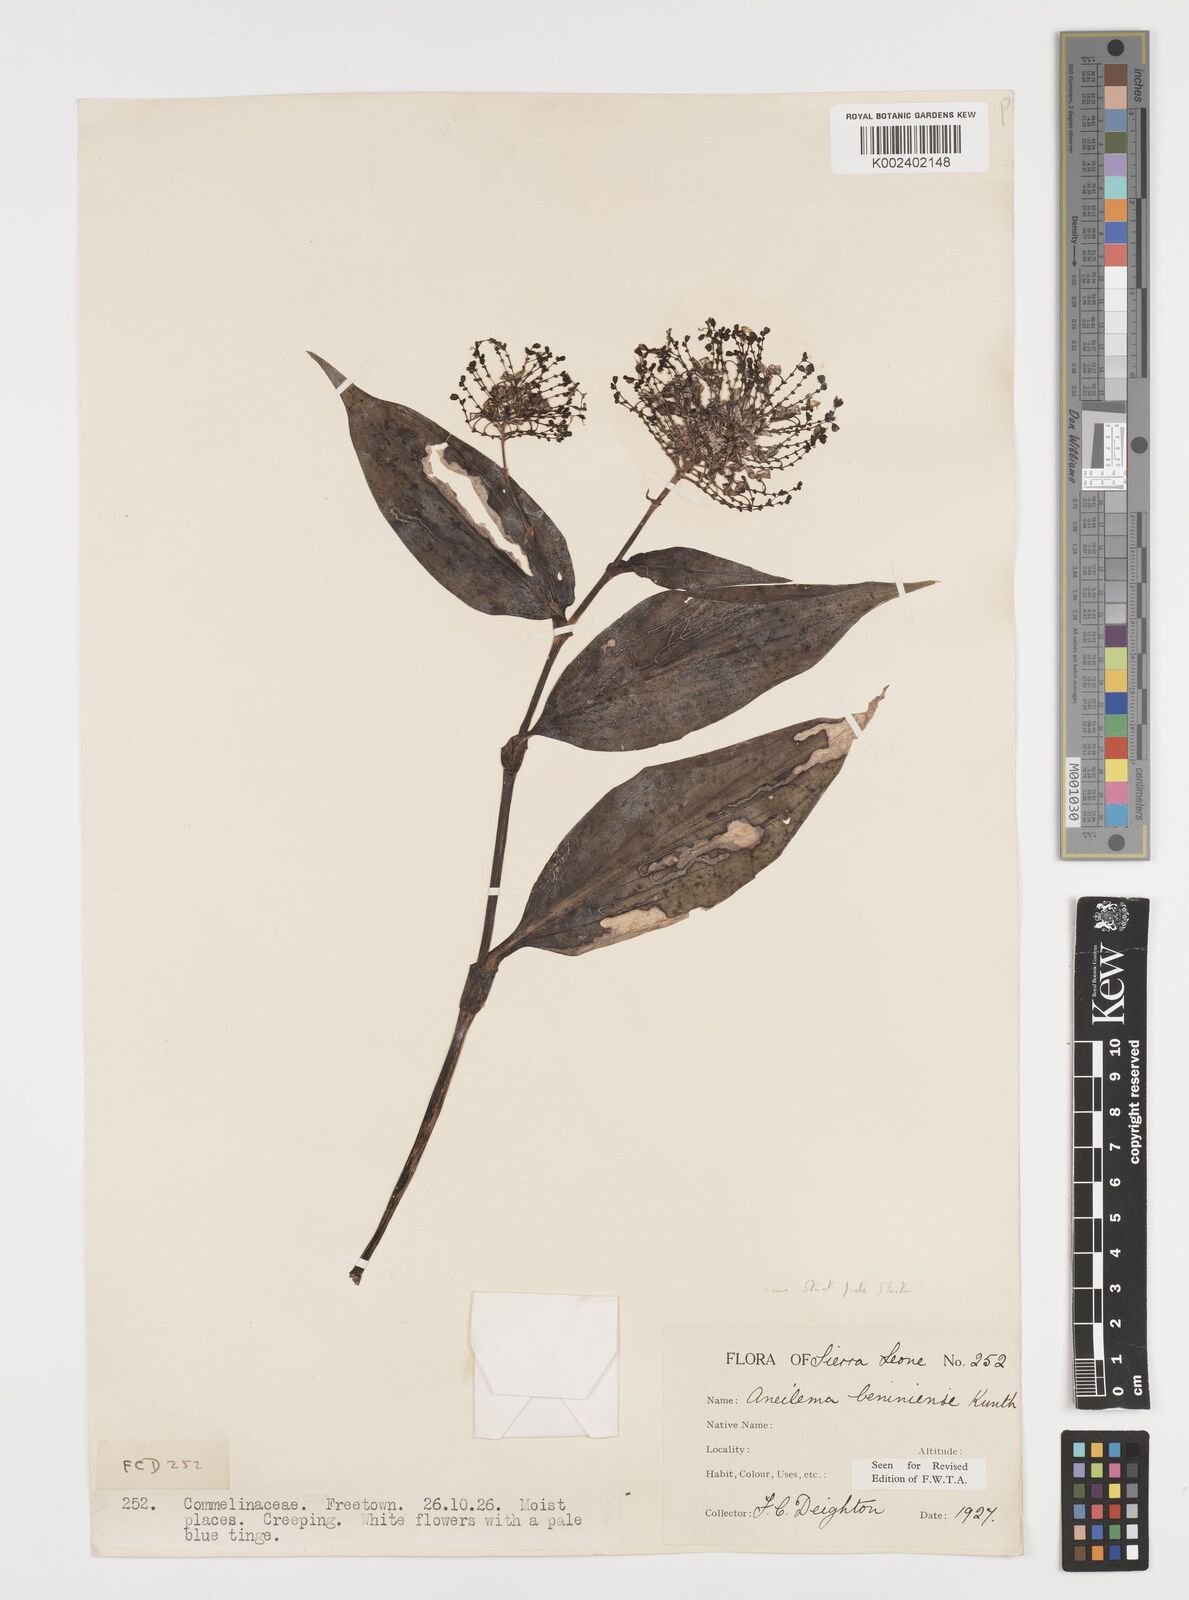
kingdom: Plantae
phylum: Tracheophyta
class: Liliopsida
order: Commelinales
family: Commelinaceae
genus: Aneilema
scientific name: Aneilema beniniense
